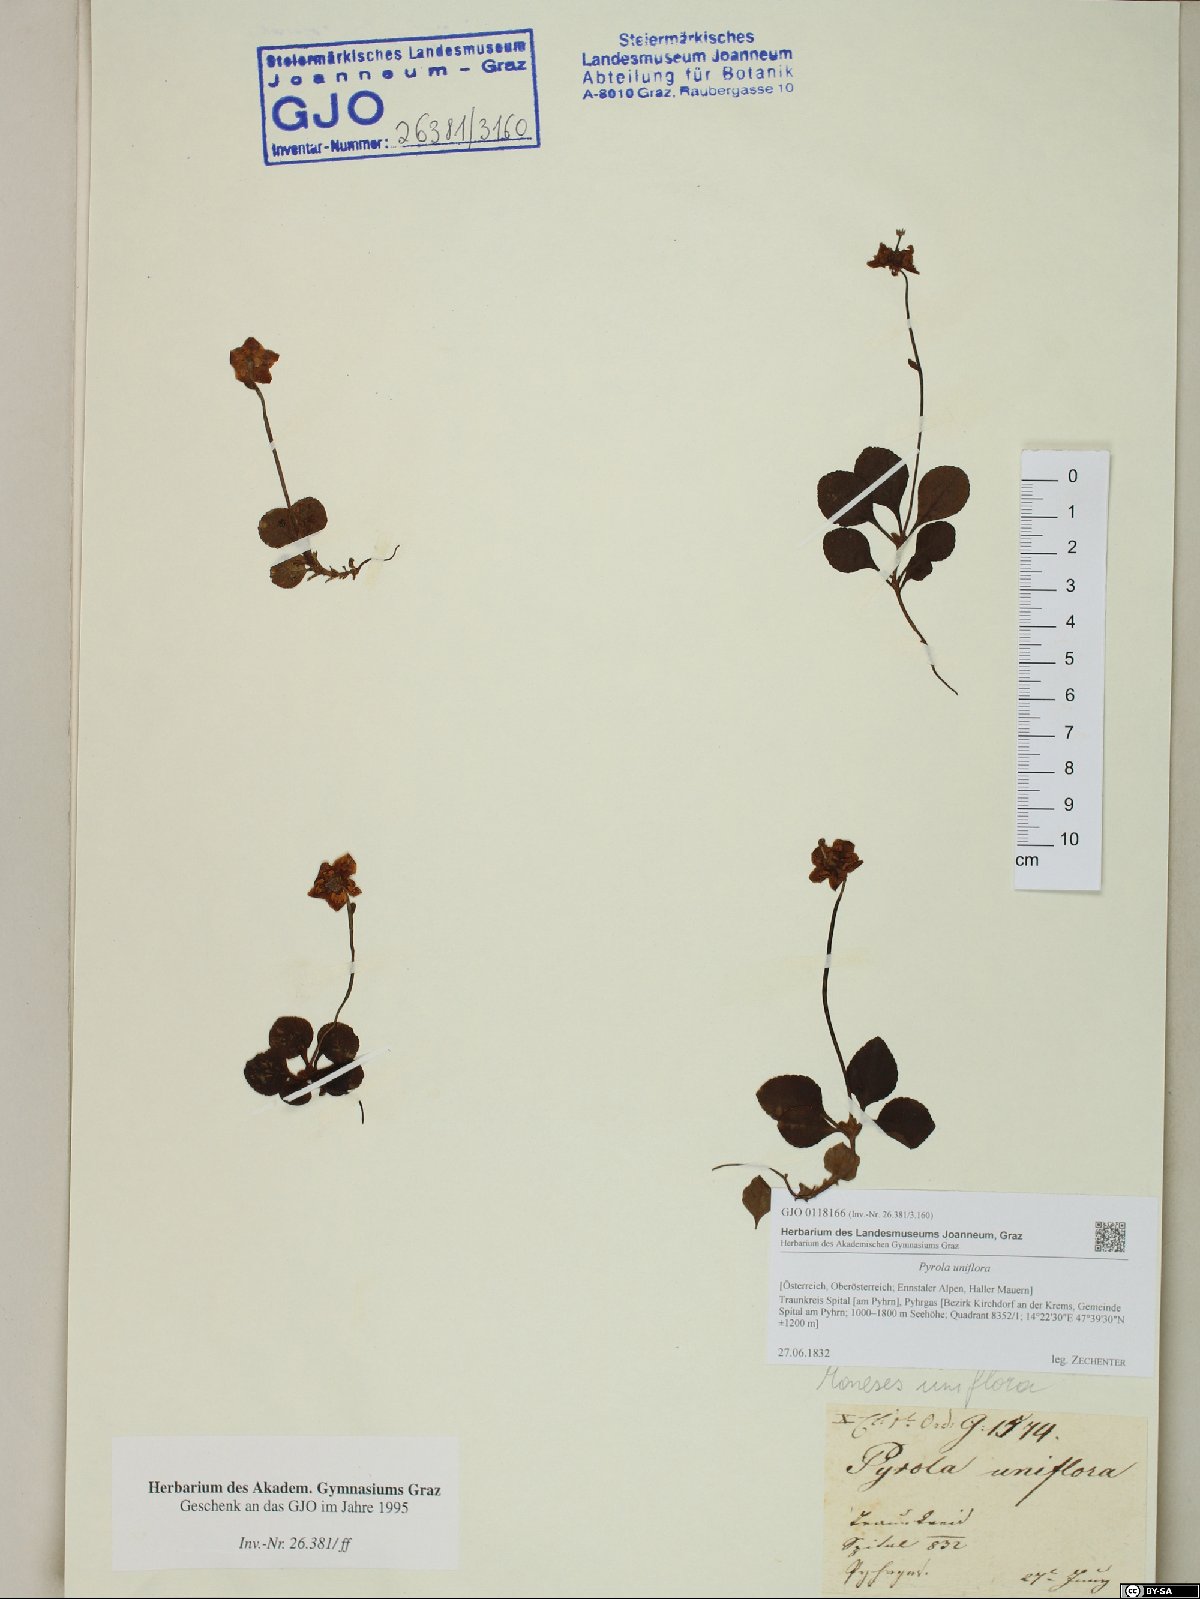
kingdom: Plantae
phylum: Tracheophyta
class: Magnoliopsida
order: Ericales
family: Ericaceae
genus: Moneses
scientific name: Moneses uniflora
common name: One-flowered wintergreen
